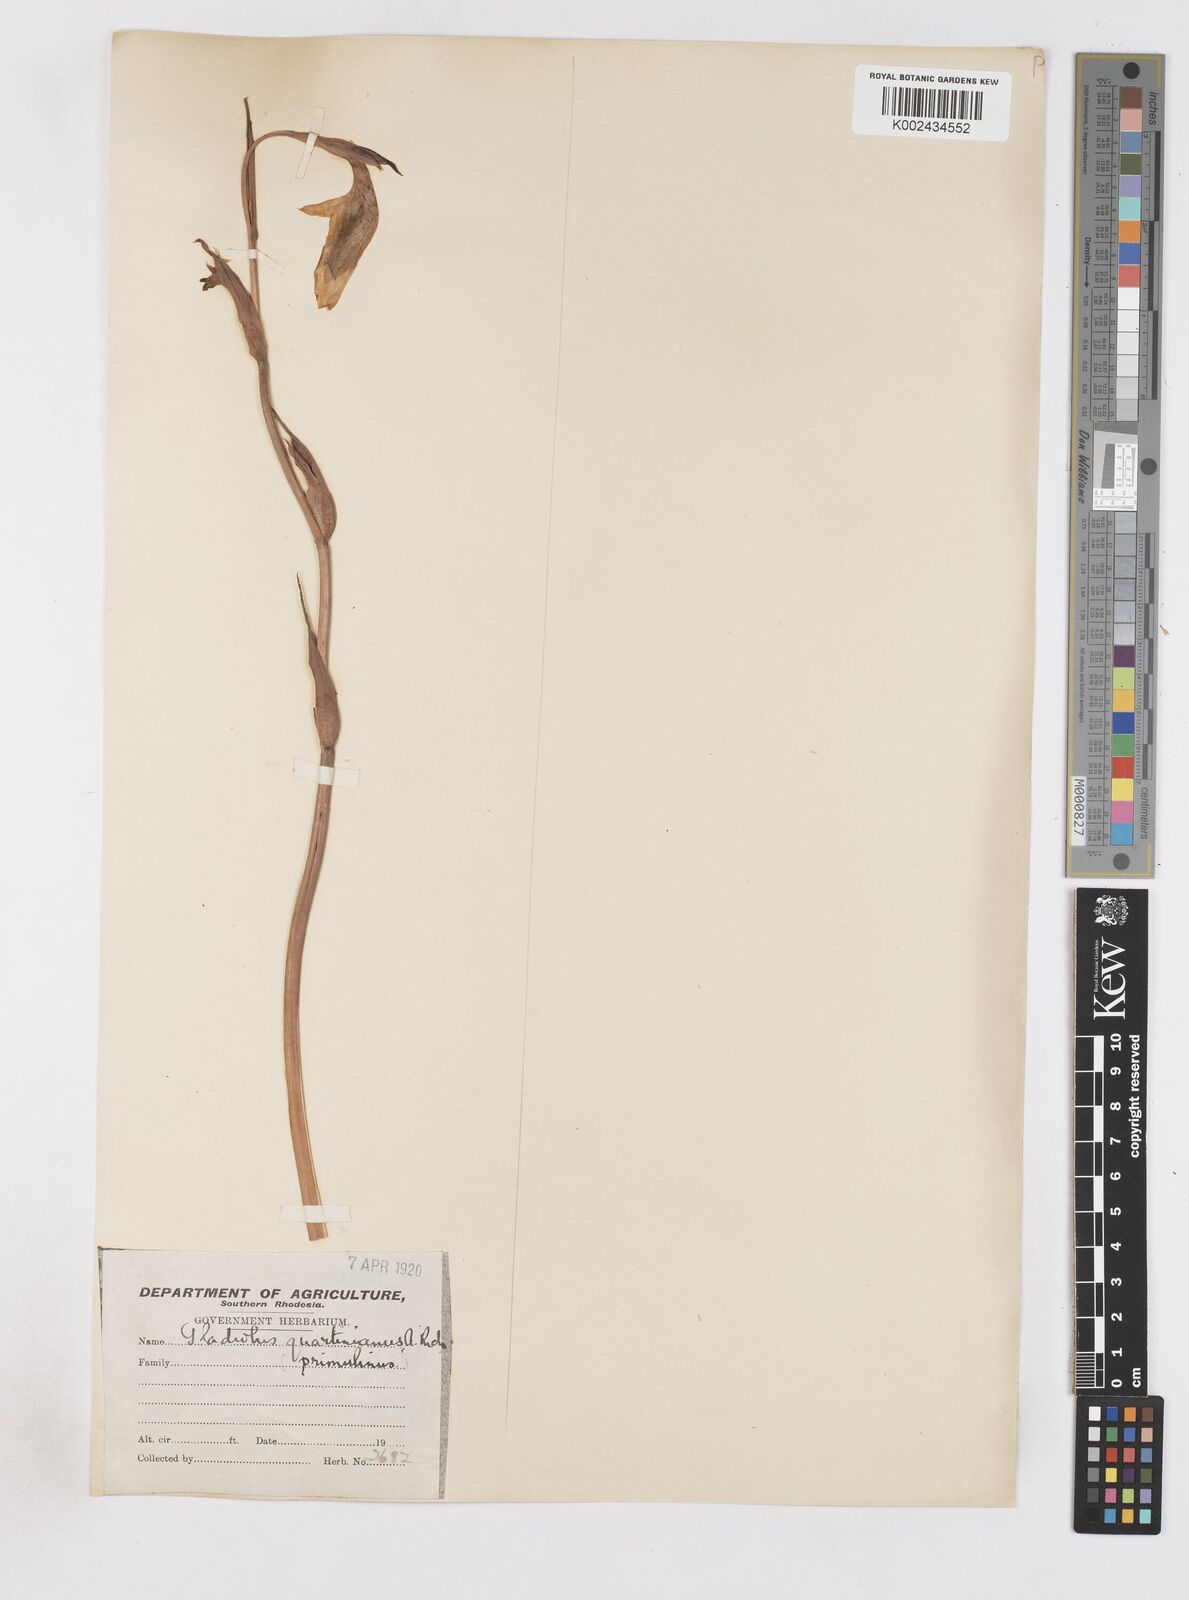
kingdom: Plantae
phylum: Tracheophyta
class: Liliopsida
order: Asparagales
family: Iridaceae
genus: Gladiolus
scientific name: Gladiolus dalenii
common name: Cornflag
